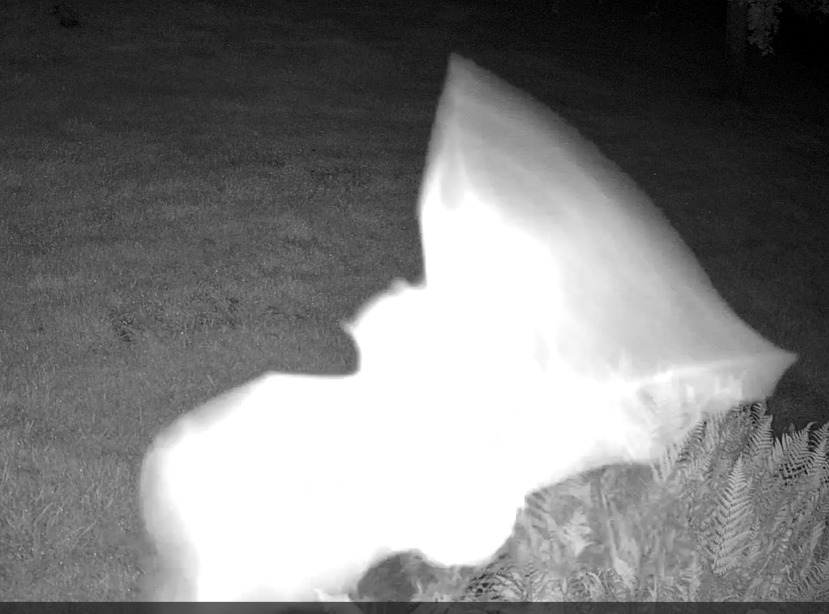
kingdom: Animalia
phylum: Chordata
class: Mammalia
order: Chiroptera
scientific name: Chiroptera
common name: Flagermus
